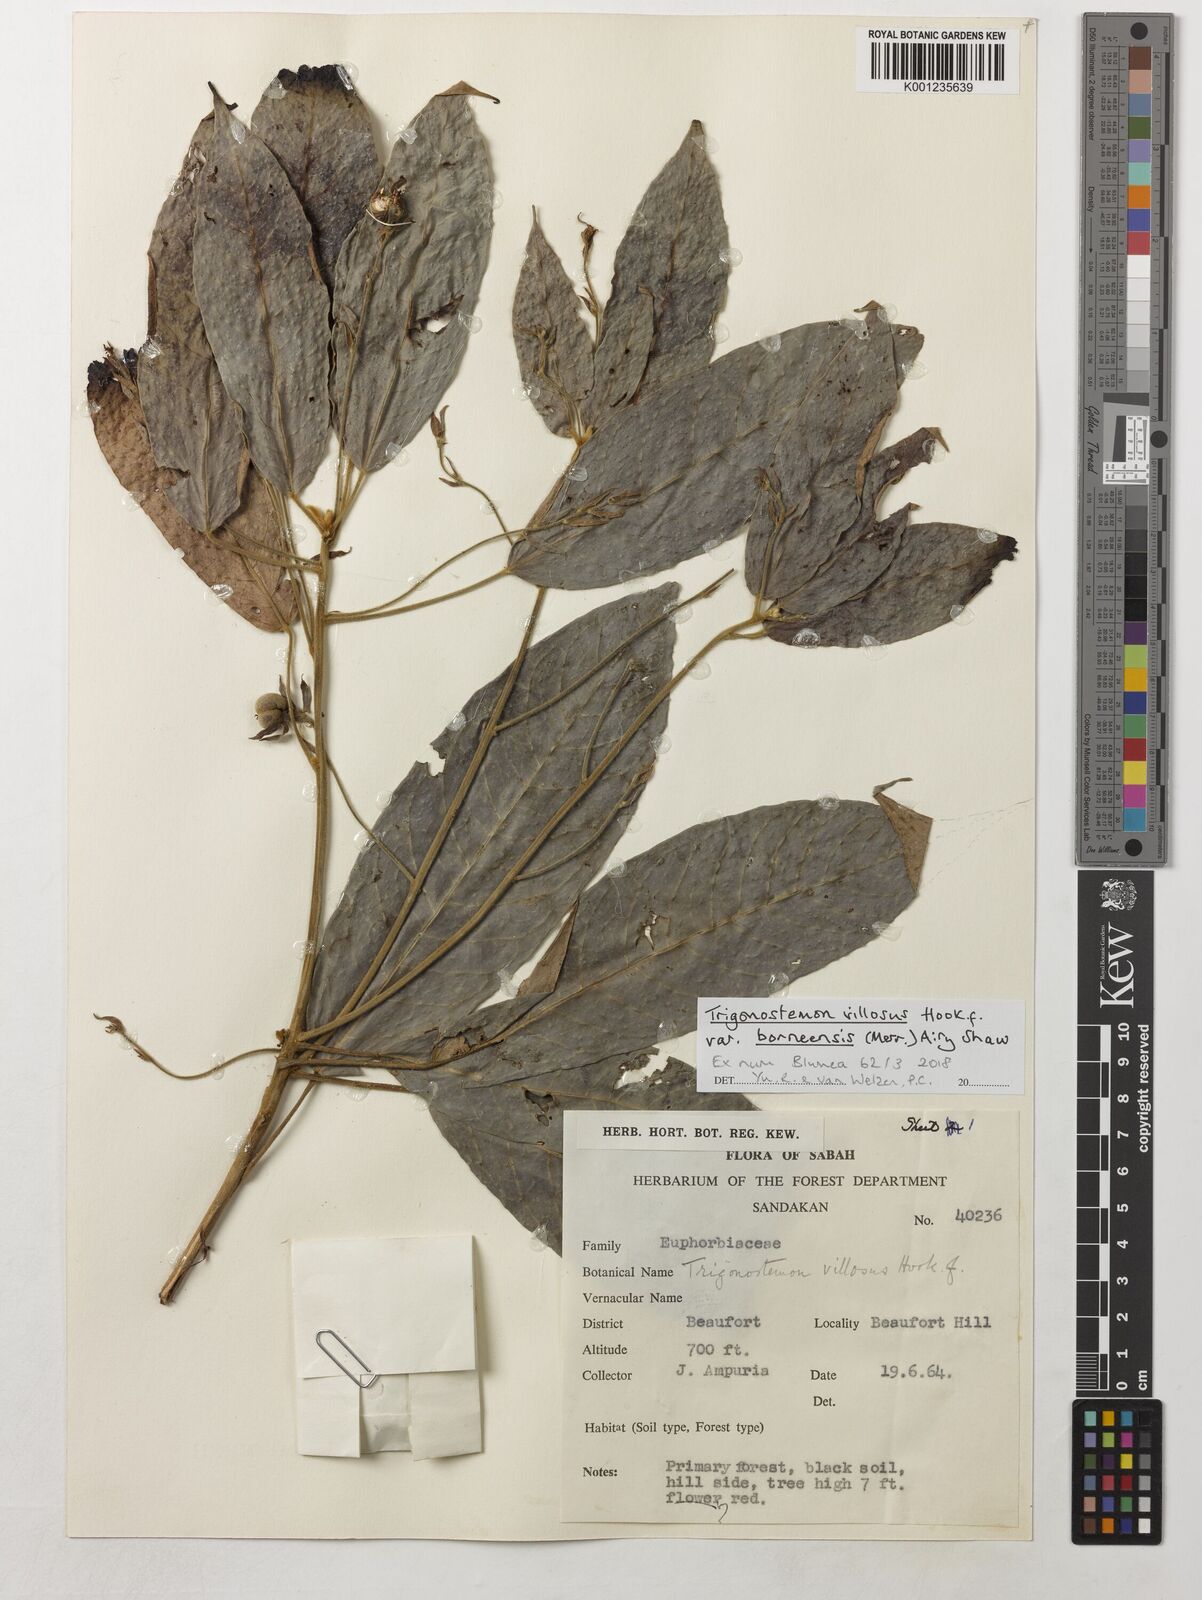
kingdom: Plantae
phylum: Tracheophyta
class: Magnoliopsida
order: Malpighiales
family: Euphorbiaceae
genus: Trigonostemon
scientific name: Trigonostemon villosus
